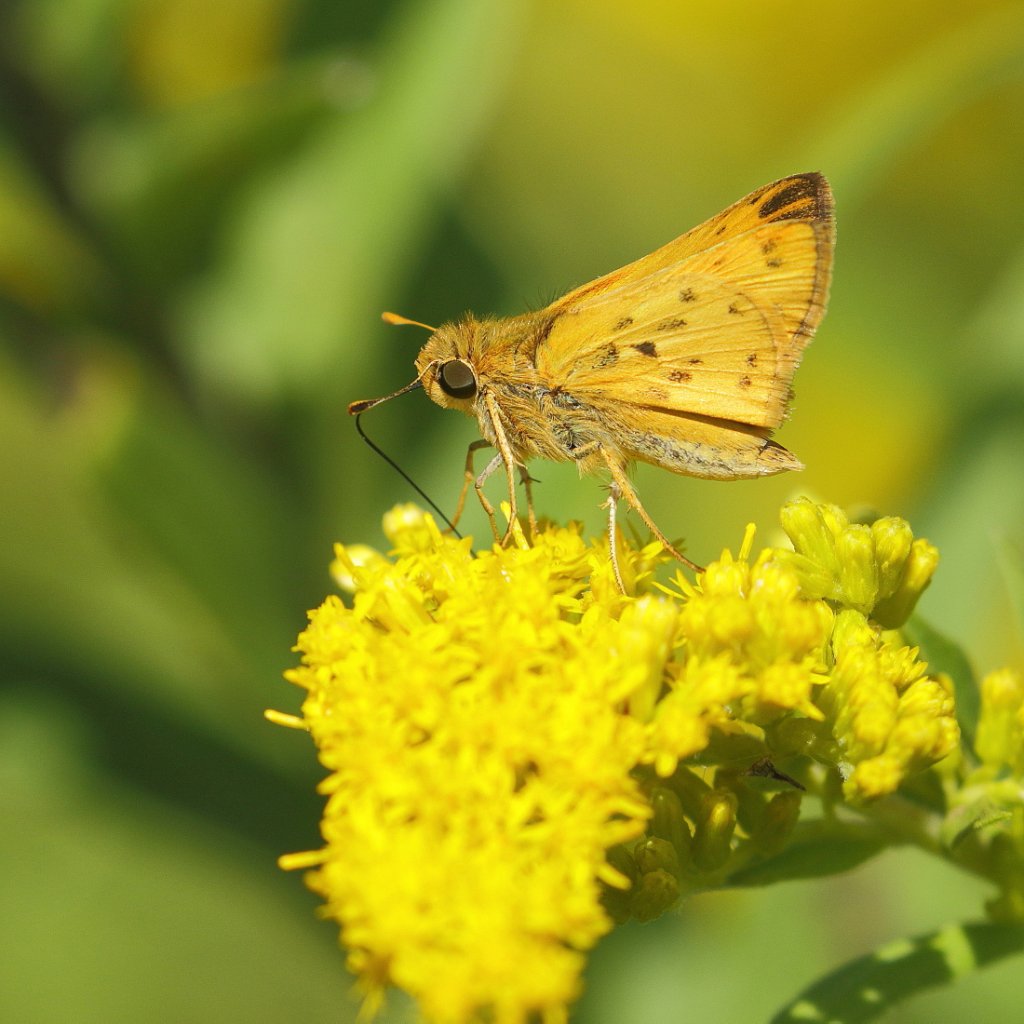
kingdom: Animalia
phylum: Arthropoda
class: Insecta
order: Lepidoptera
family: Hesperiidae
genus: Hylephila
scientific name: Hylephila phyleus
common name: Fiery Skipper
